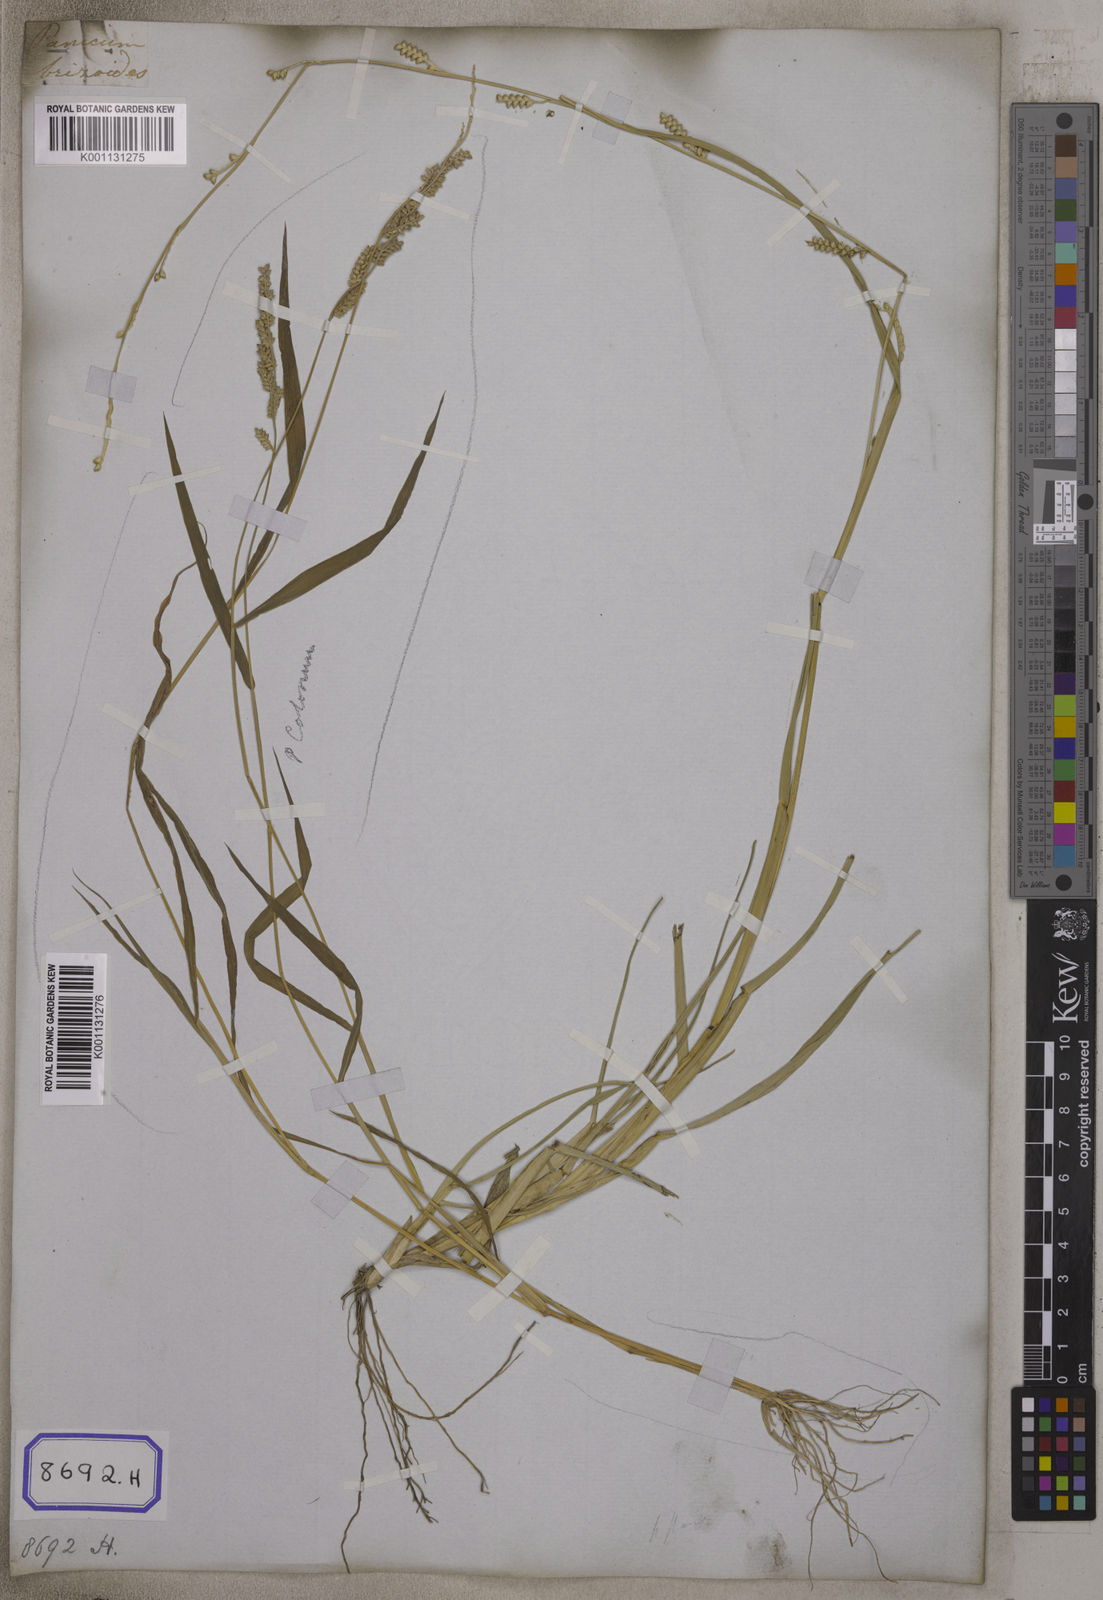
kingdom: Plantae
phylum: Tracheophyta
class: Liliopsida
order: Poales
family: Poaceae
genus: Setaria
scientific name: Setaria flavida
